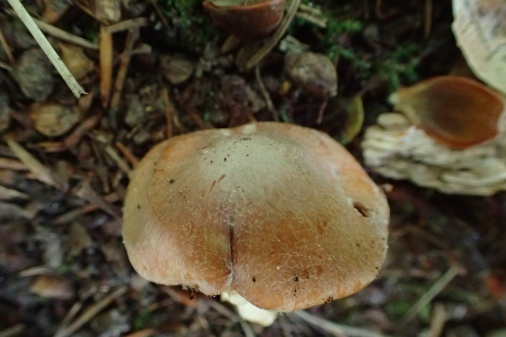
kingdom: Fungi
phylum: Basidiomycota
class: Agaricomycetes
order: Agaricales
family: Cortinariaceae
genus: Cortinarius
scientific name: Cortinarius
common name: jod-slørhat
